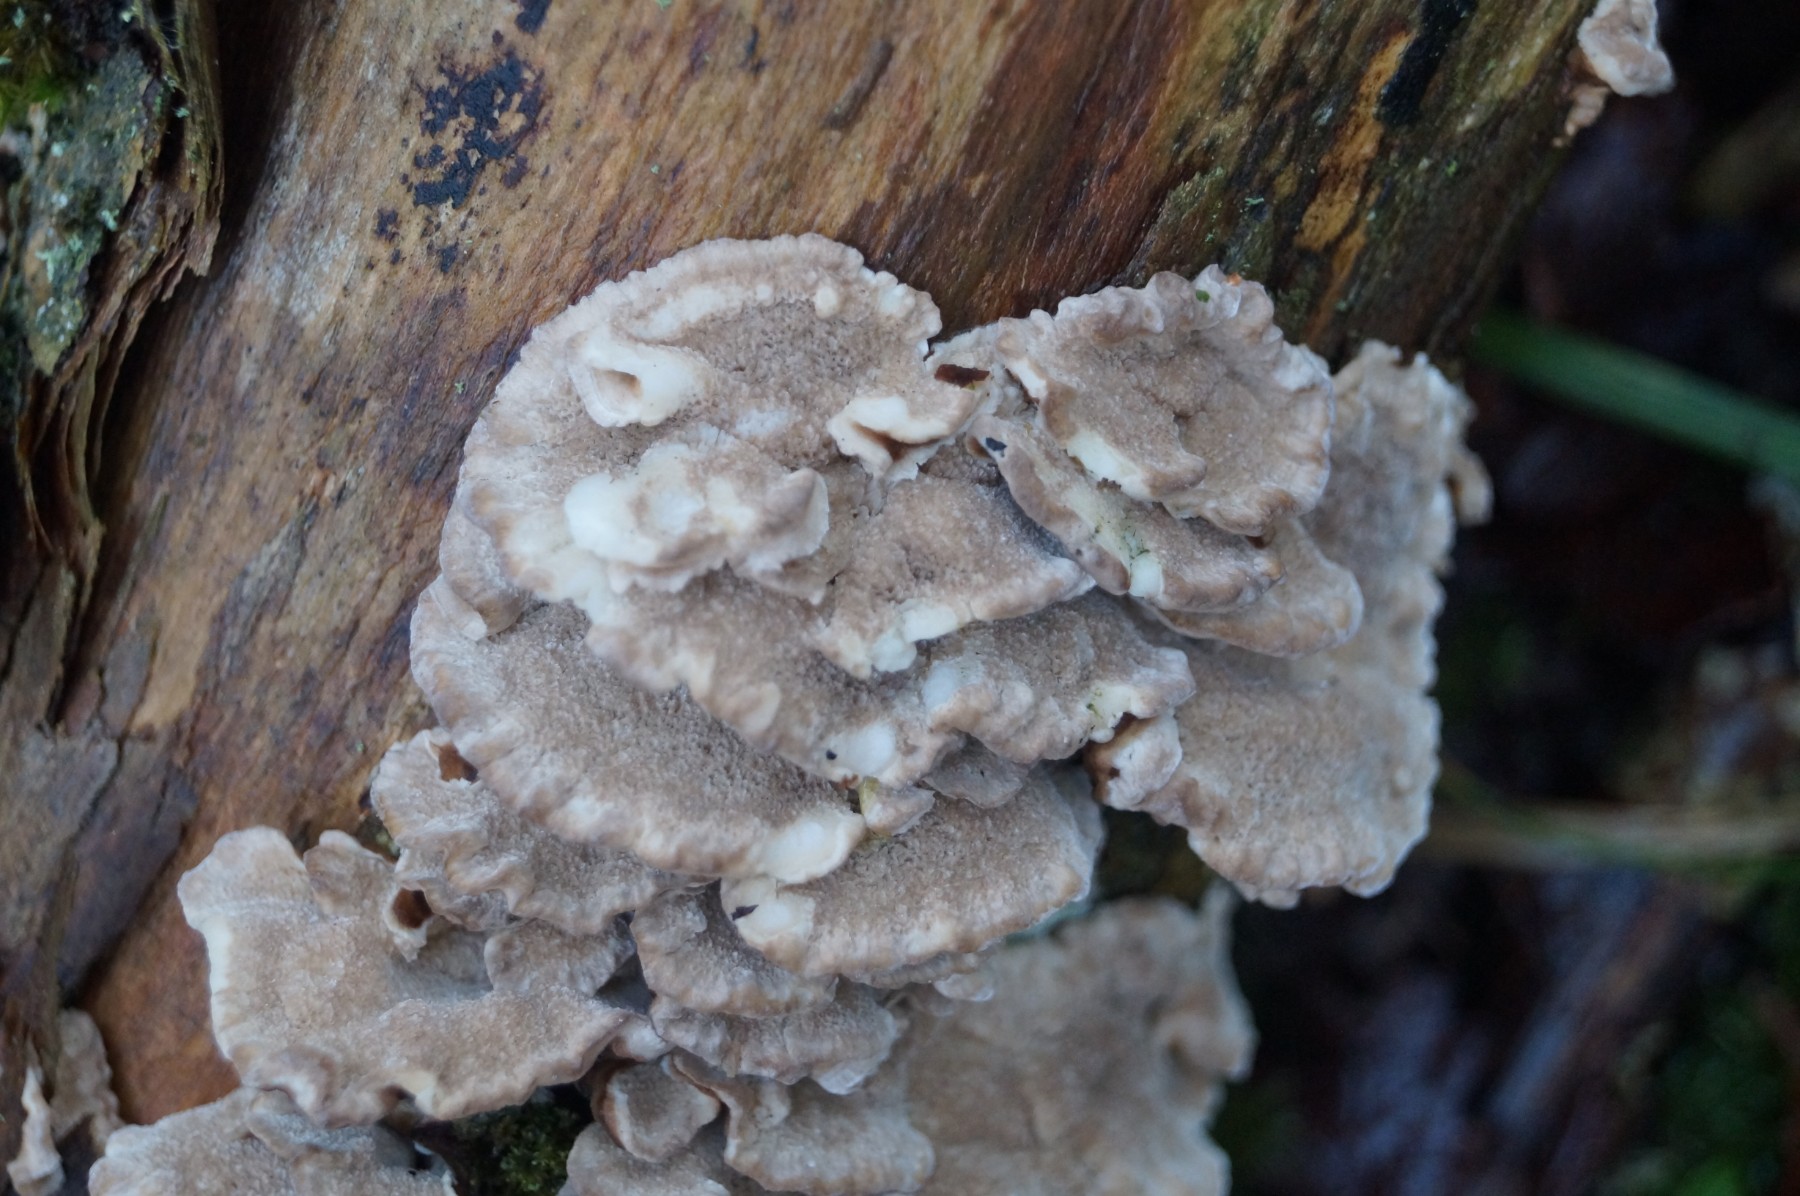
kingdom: Fungi
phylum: Basidiomycota
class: Agaricomycetes
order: Polyporales
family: Polyporaceae
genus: Trametes
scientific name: Trametes ochracea
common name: bæltet læderporesvamp
